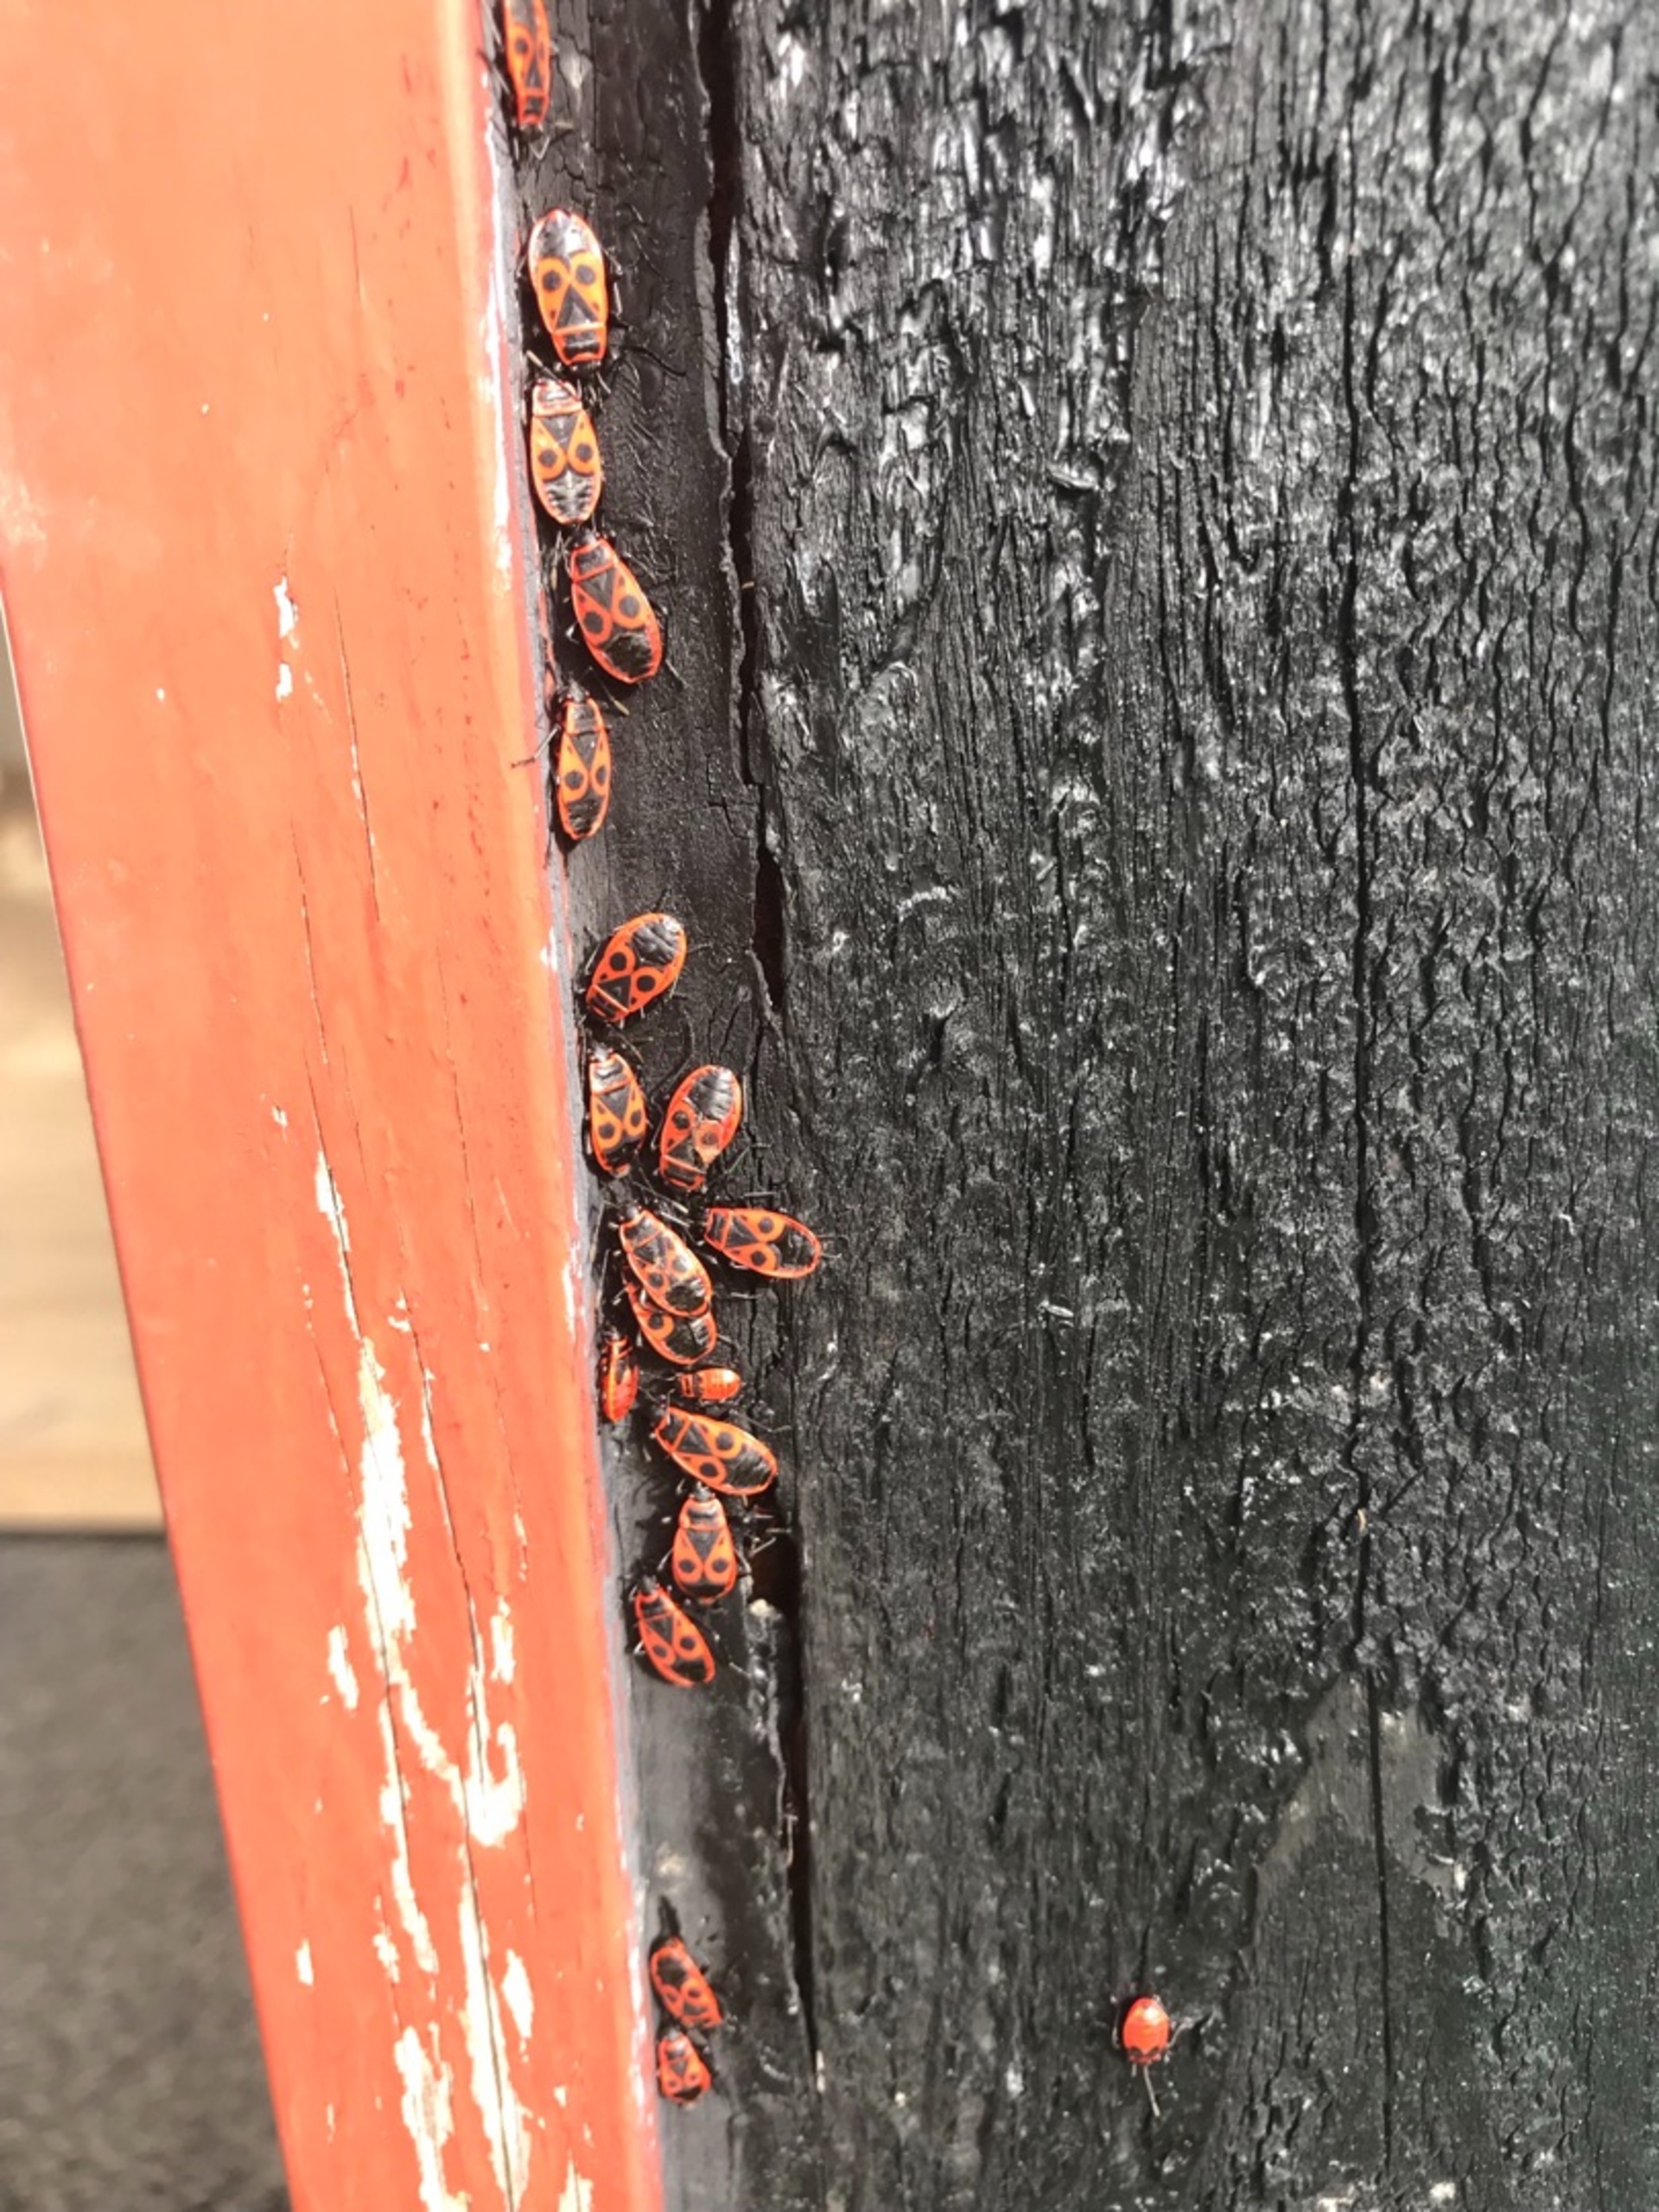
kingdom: Animalia
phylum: Arthropoda
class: Insecta
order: Hemiptera
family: Pyrrhocoridae
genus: Pyrrhocoris
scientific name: Pyrrhocoris apterus
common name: Ildtæge
